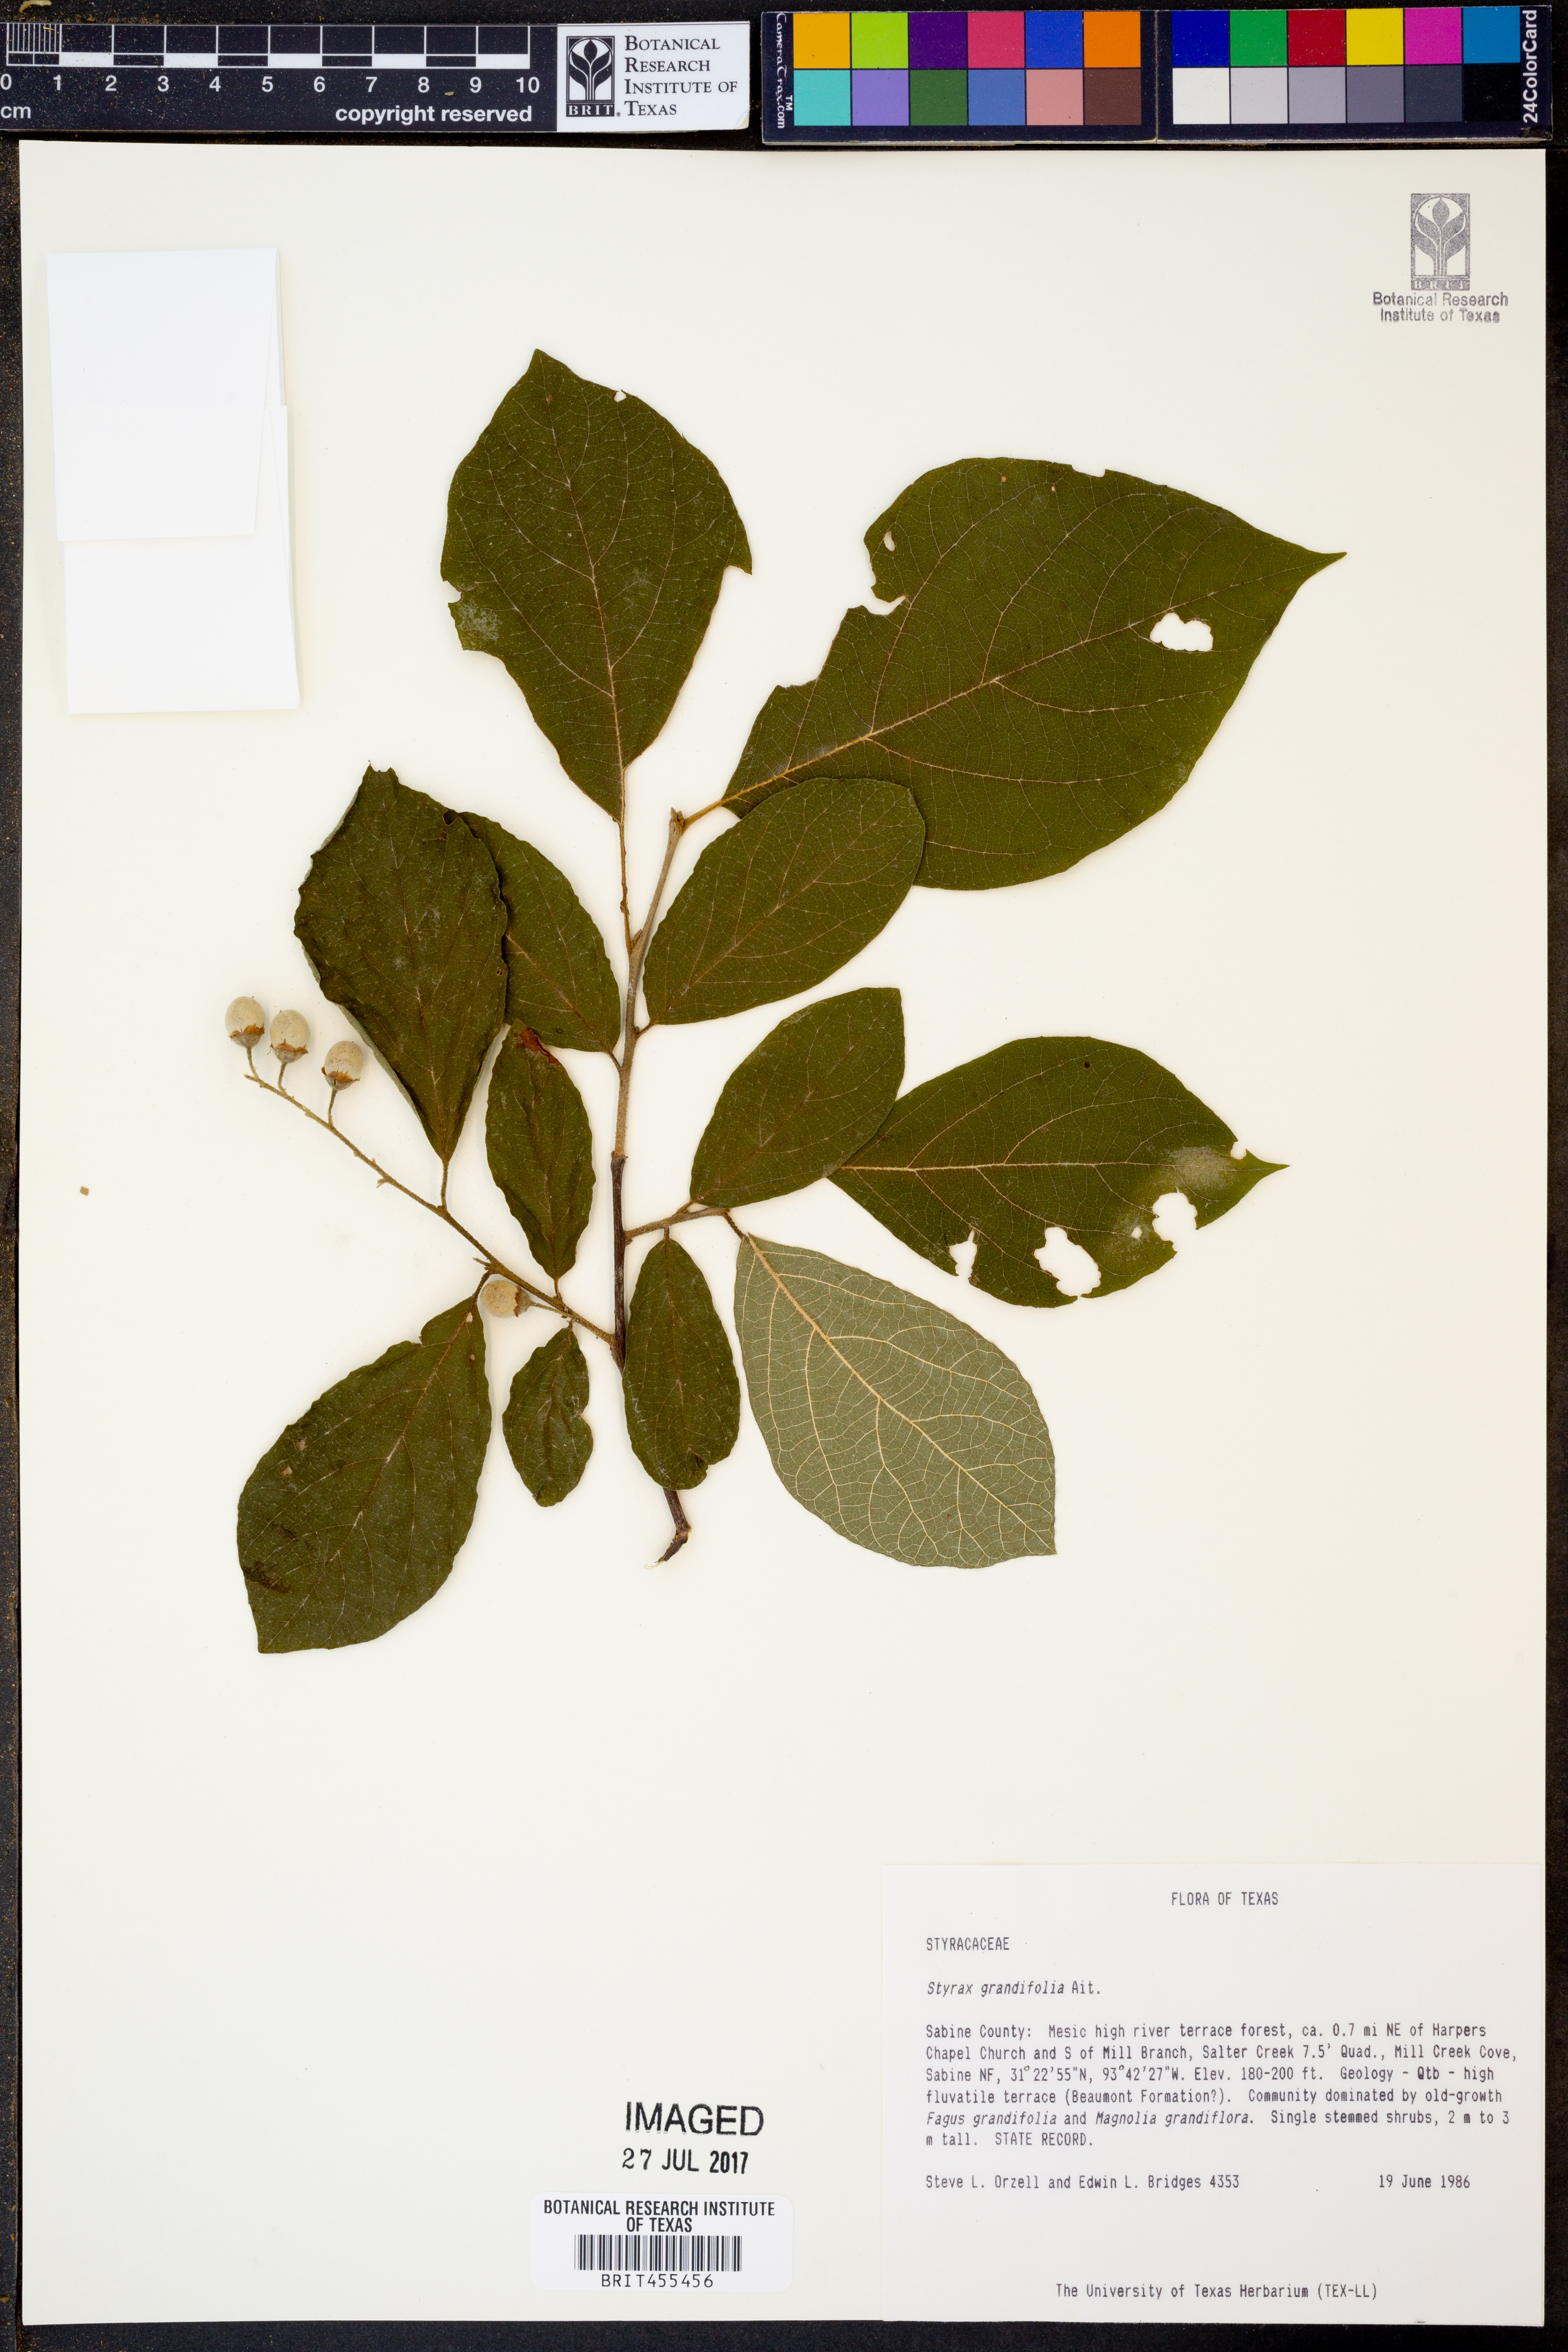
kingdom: Plantae
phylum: Tracheophyta
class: Magnoliopsida
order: Ericales
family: Styracaceae
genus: Styrax
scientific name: Styrax grandifolius
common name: Big-leaf snowbell
